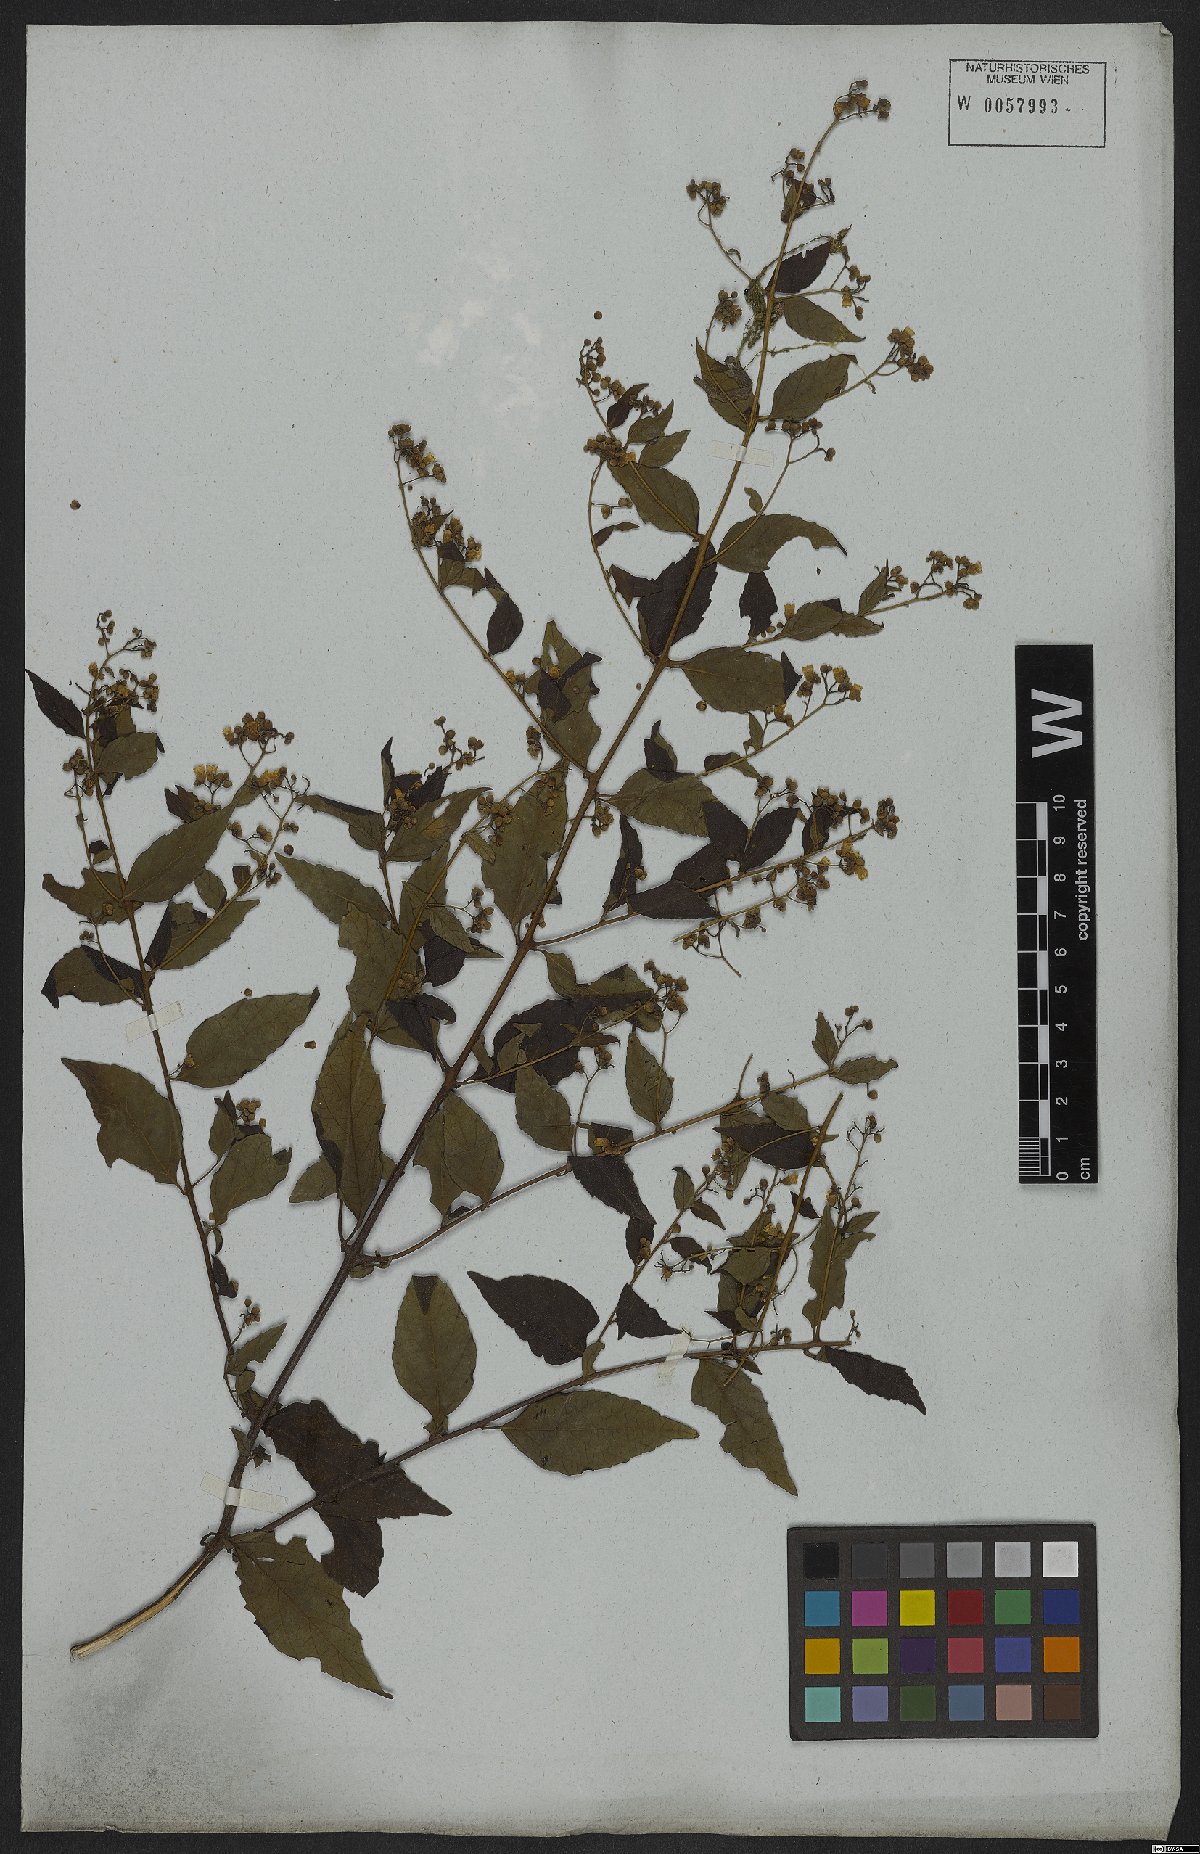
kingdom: Plantae
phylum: Tracheophyta
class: Magnoliopsida
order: Boraginales
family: Cordiaceae
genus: Varronia
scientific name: Varronia discolor
